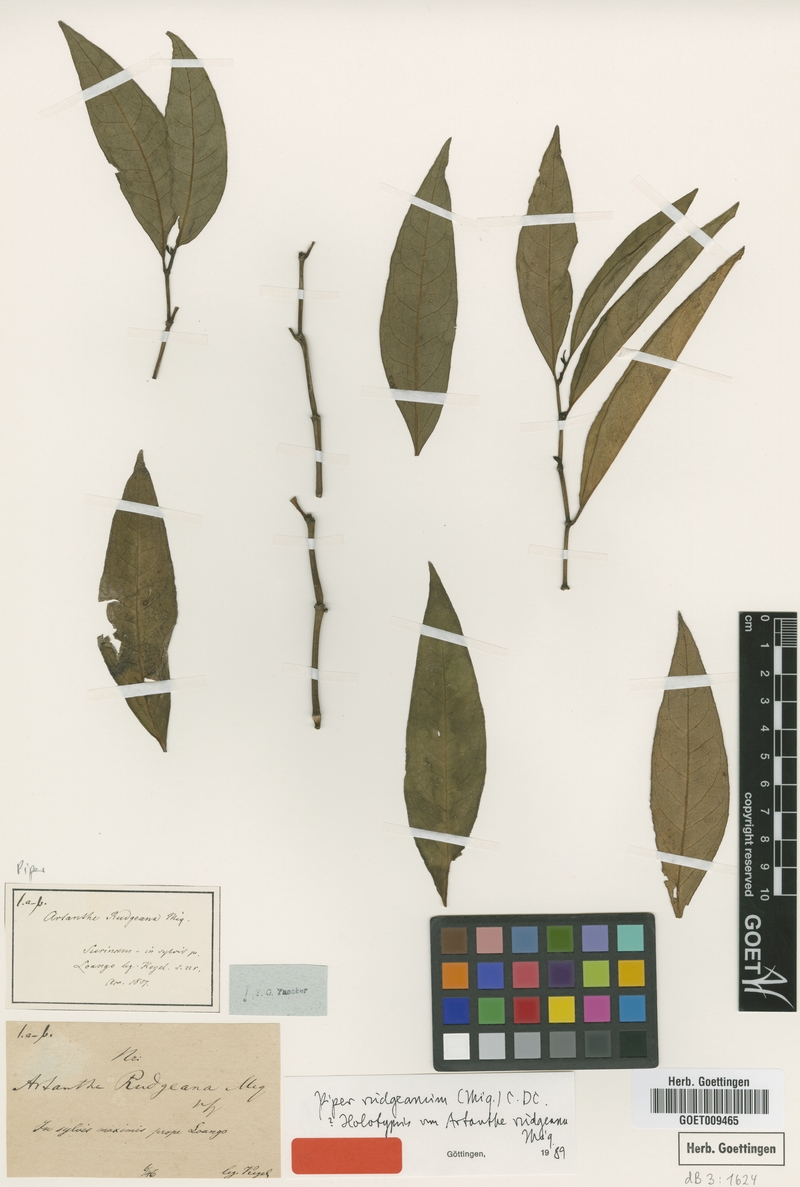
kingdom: Plantae
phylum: Tracheophyta
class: Magnoliopsida
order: Piperales
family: Piperaceae
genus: Piper
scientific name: Piper rudgeanum
